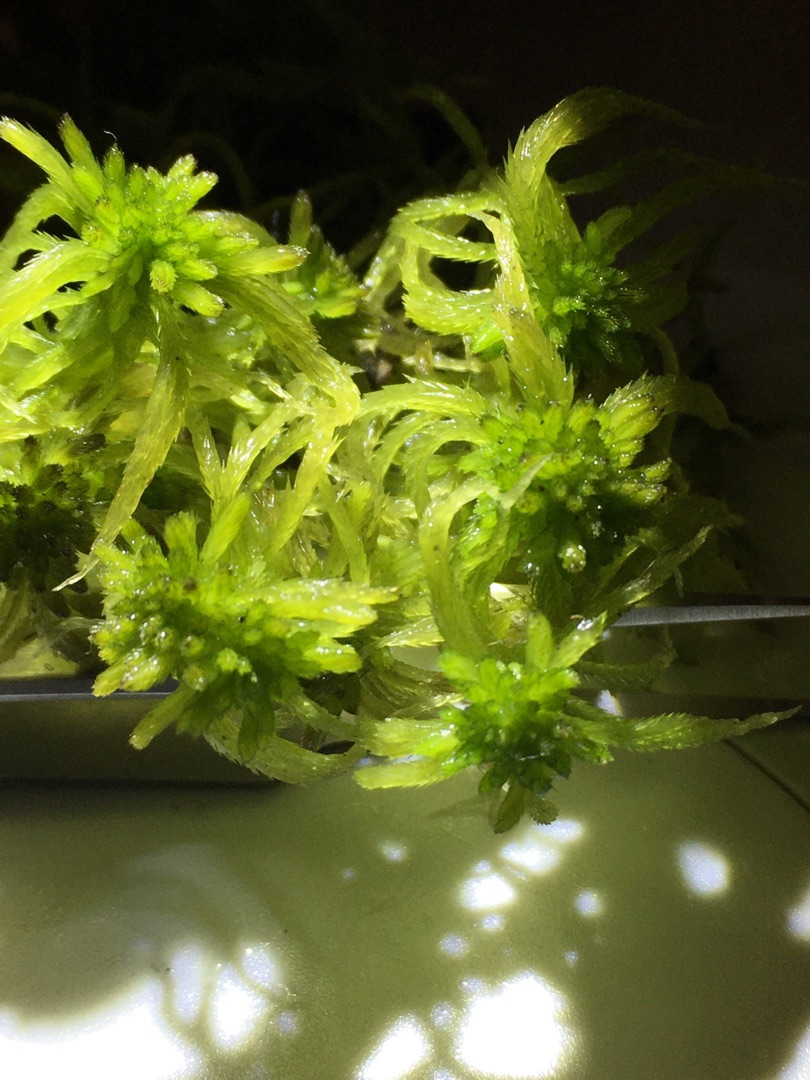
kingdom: Plantae
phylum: Bryophyta
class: Sphagnopsida
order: Sphagnales
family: Sphagnaceae
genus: Sphagnum
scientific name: Sphagnum fallax
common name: Brodspids-tørvemos
